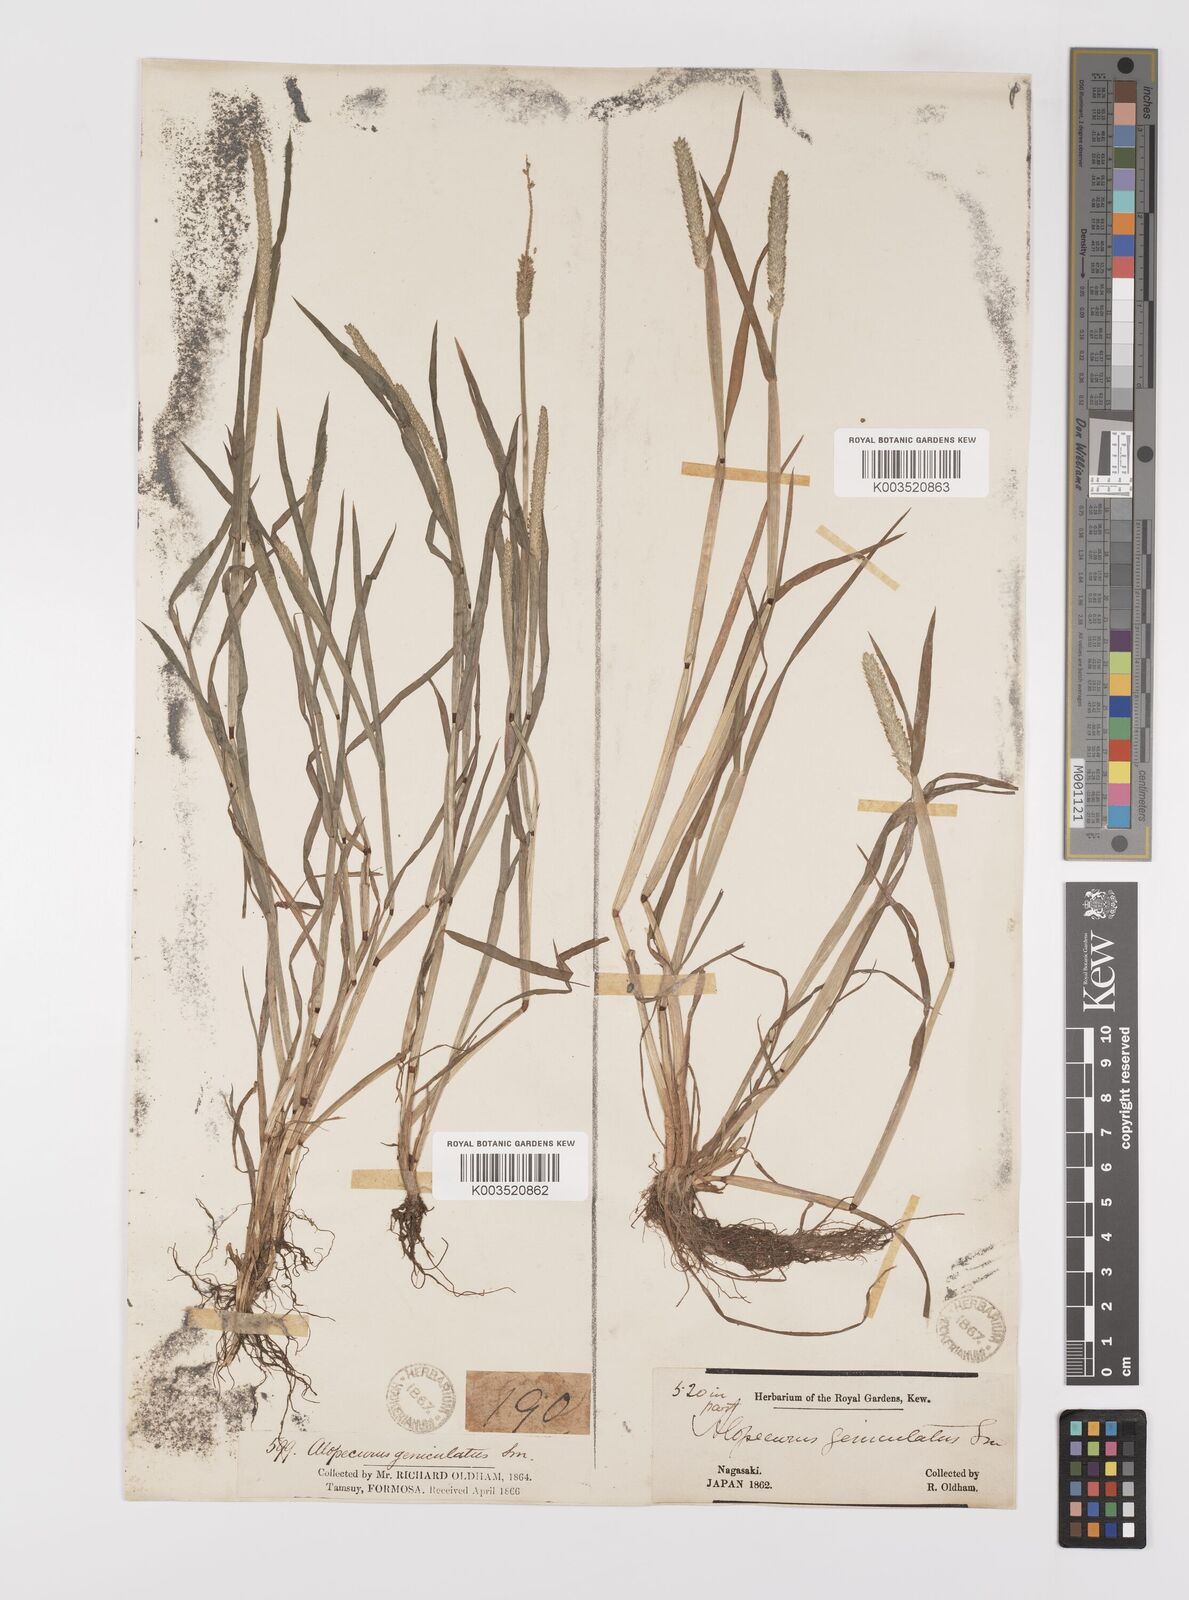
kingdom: Plantae
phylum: Tracheophyta
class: Liliopsida
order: Poales
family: Poaceae
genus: Alopecurus
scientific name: Alopecurus aequalis
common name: Orange foxtail
